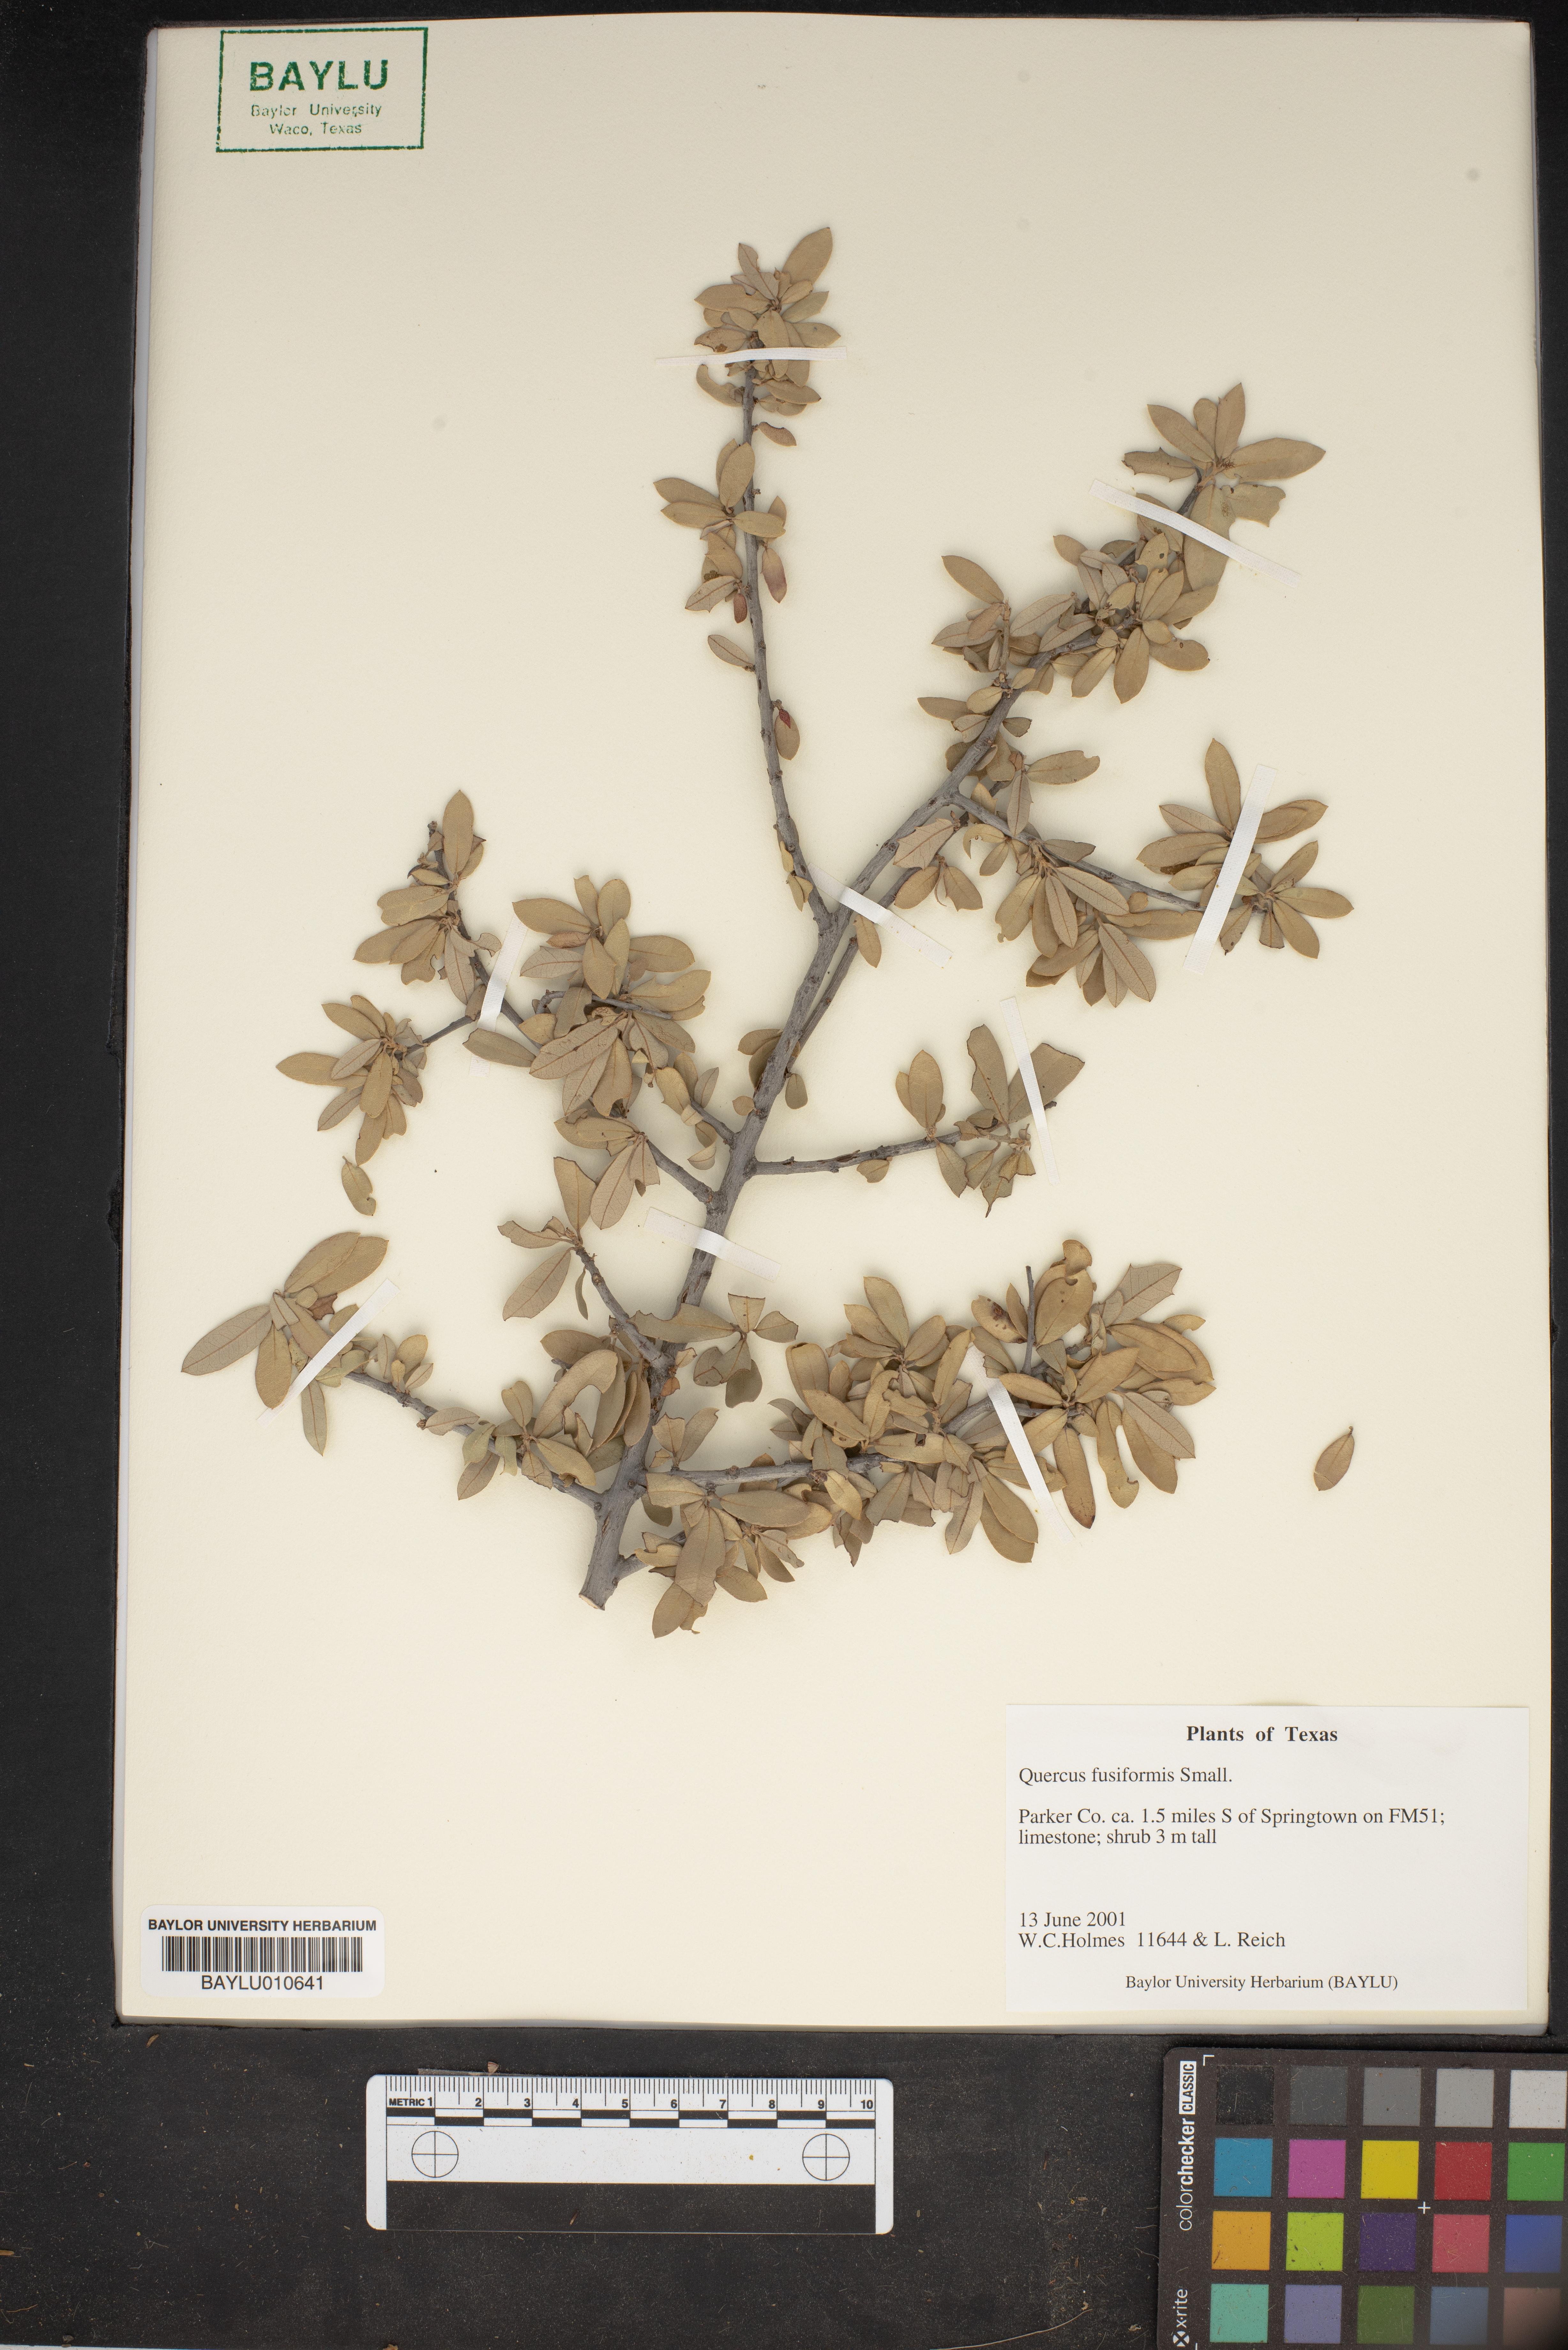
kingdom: Plantae
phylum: Tracheophyta
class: Magnoliopsida
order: Fagales
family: Fagaceae
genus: Quercus
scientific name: Quercus fusiformis
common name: Texas live oak
